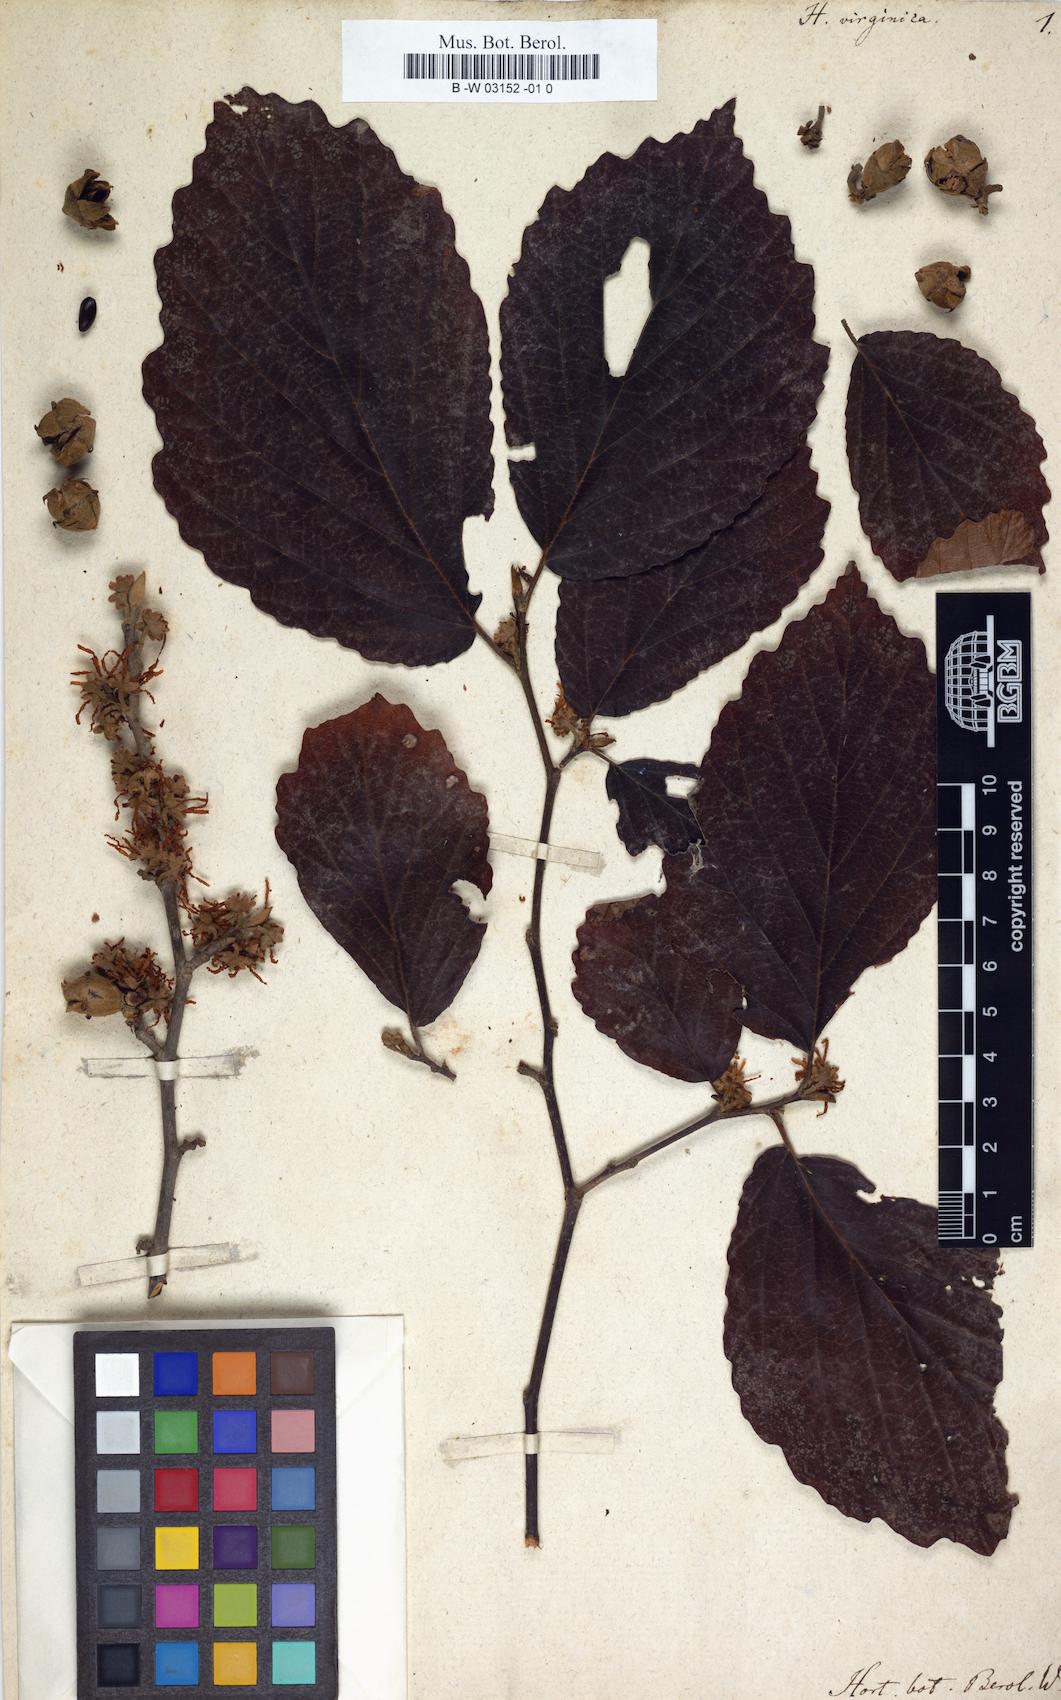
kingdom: Plantae
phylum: Tracheophyta
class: Magnoliopsida
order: Saxifragales
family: Hamamelidaceae
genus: Hamamelis
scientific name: Hamamelis virginiana
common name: Witch-hazel
